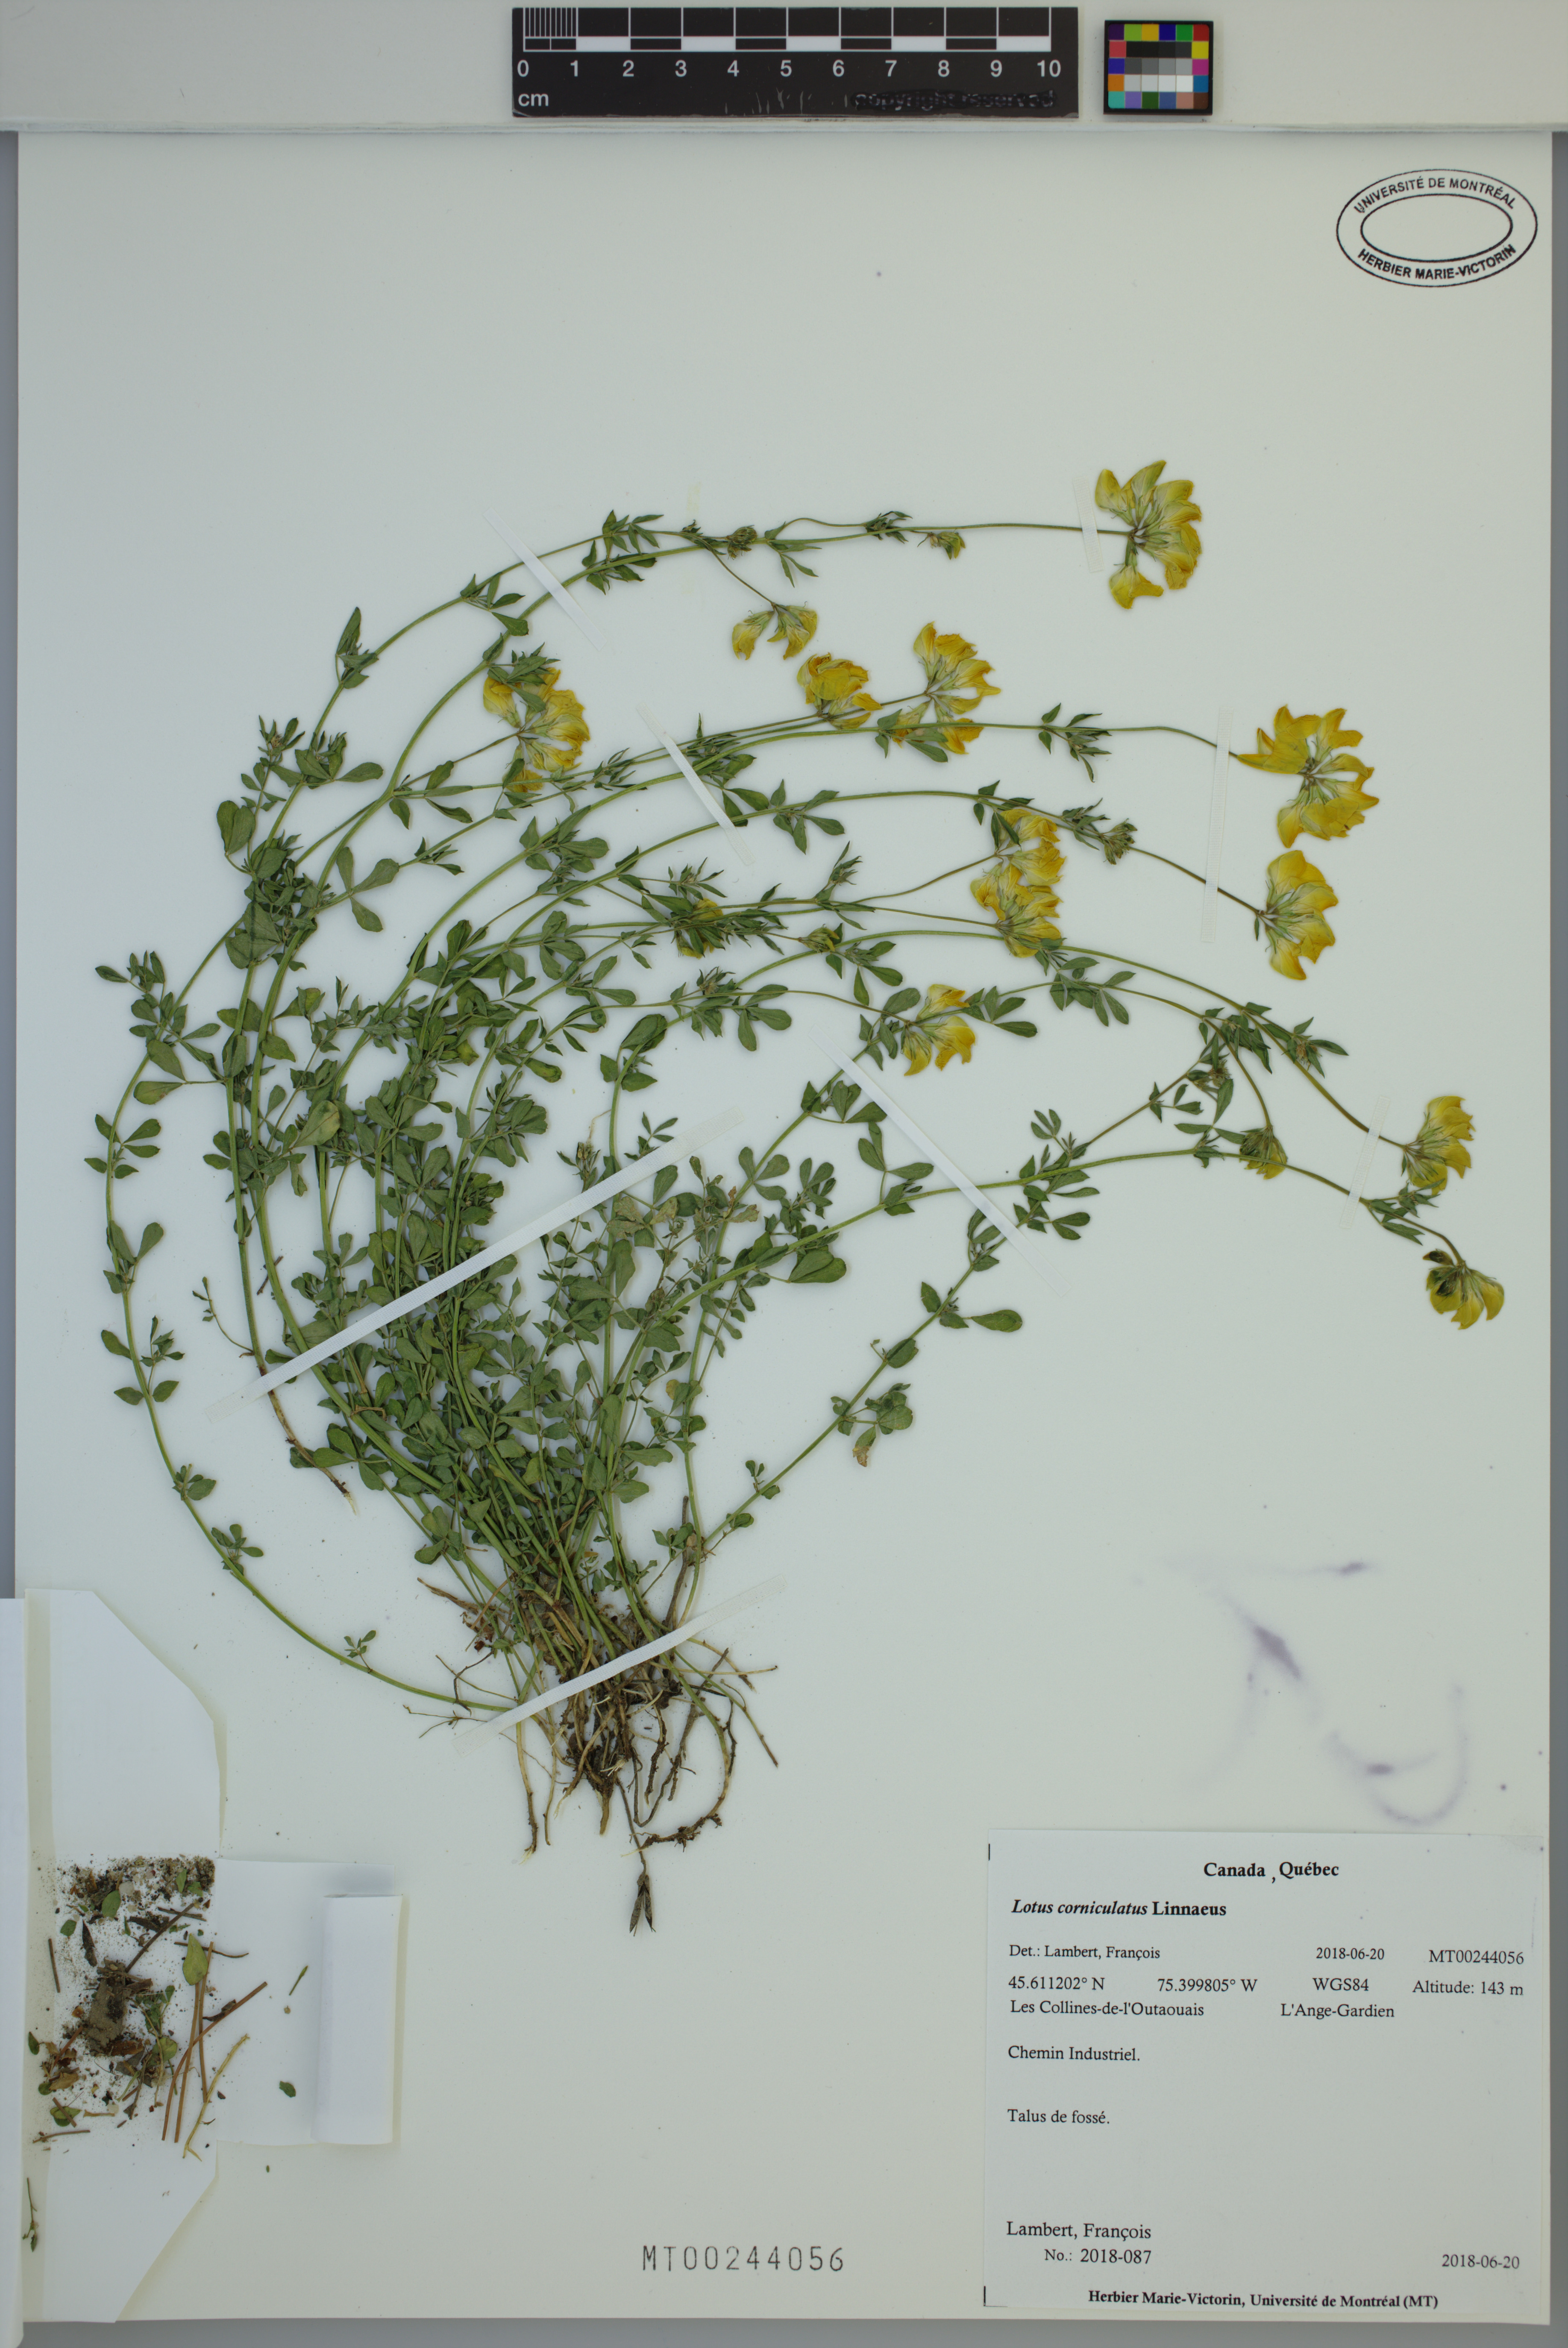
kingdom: Plantae
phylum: Tracheophyta
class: Magnoliopsida
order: Fabales
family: Fabaceae
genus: Lotus
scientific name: Lotus corniculatus
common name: Common bird's-foot-trefoil
